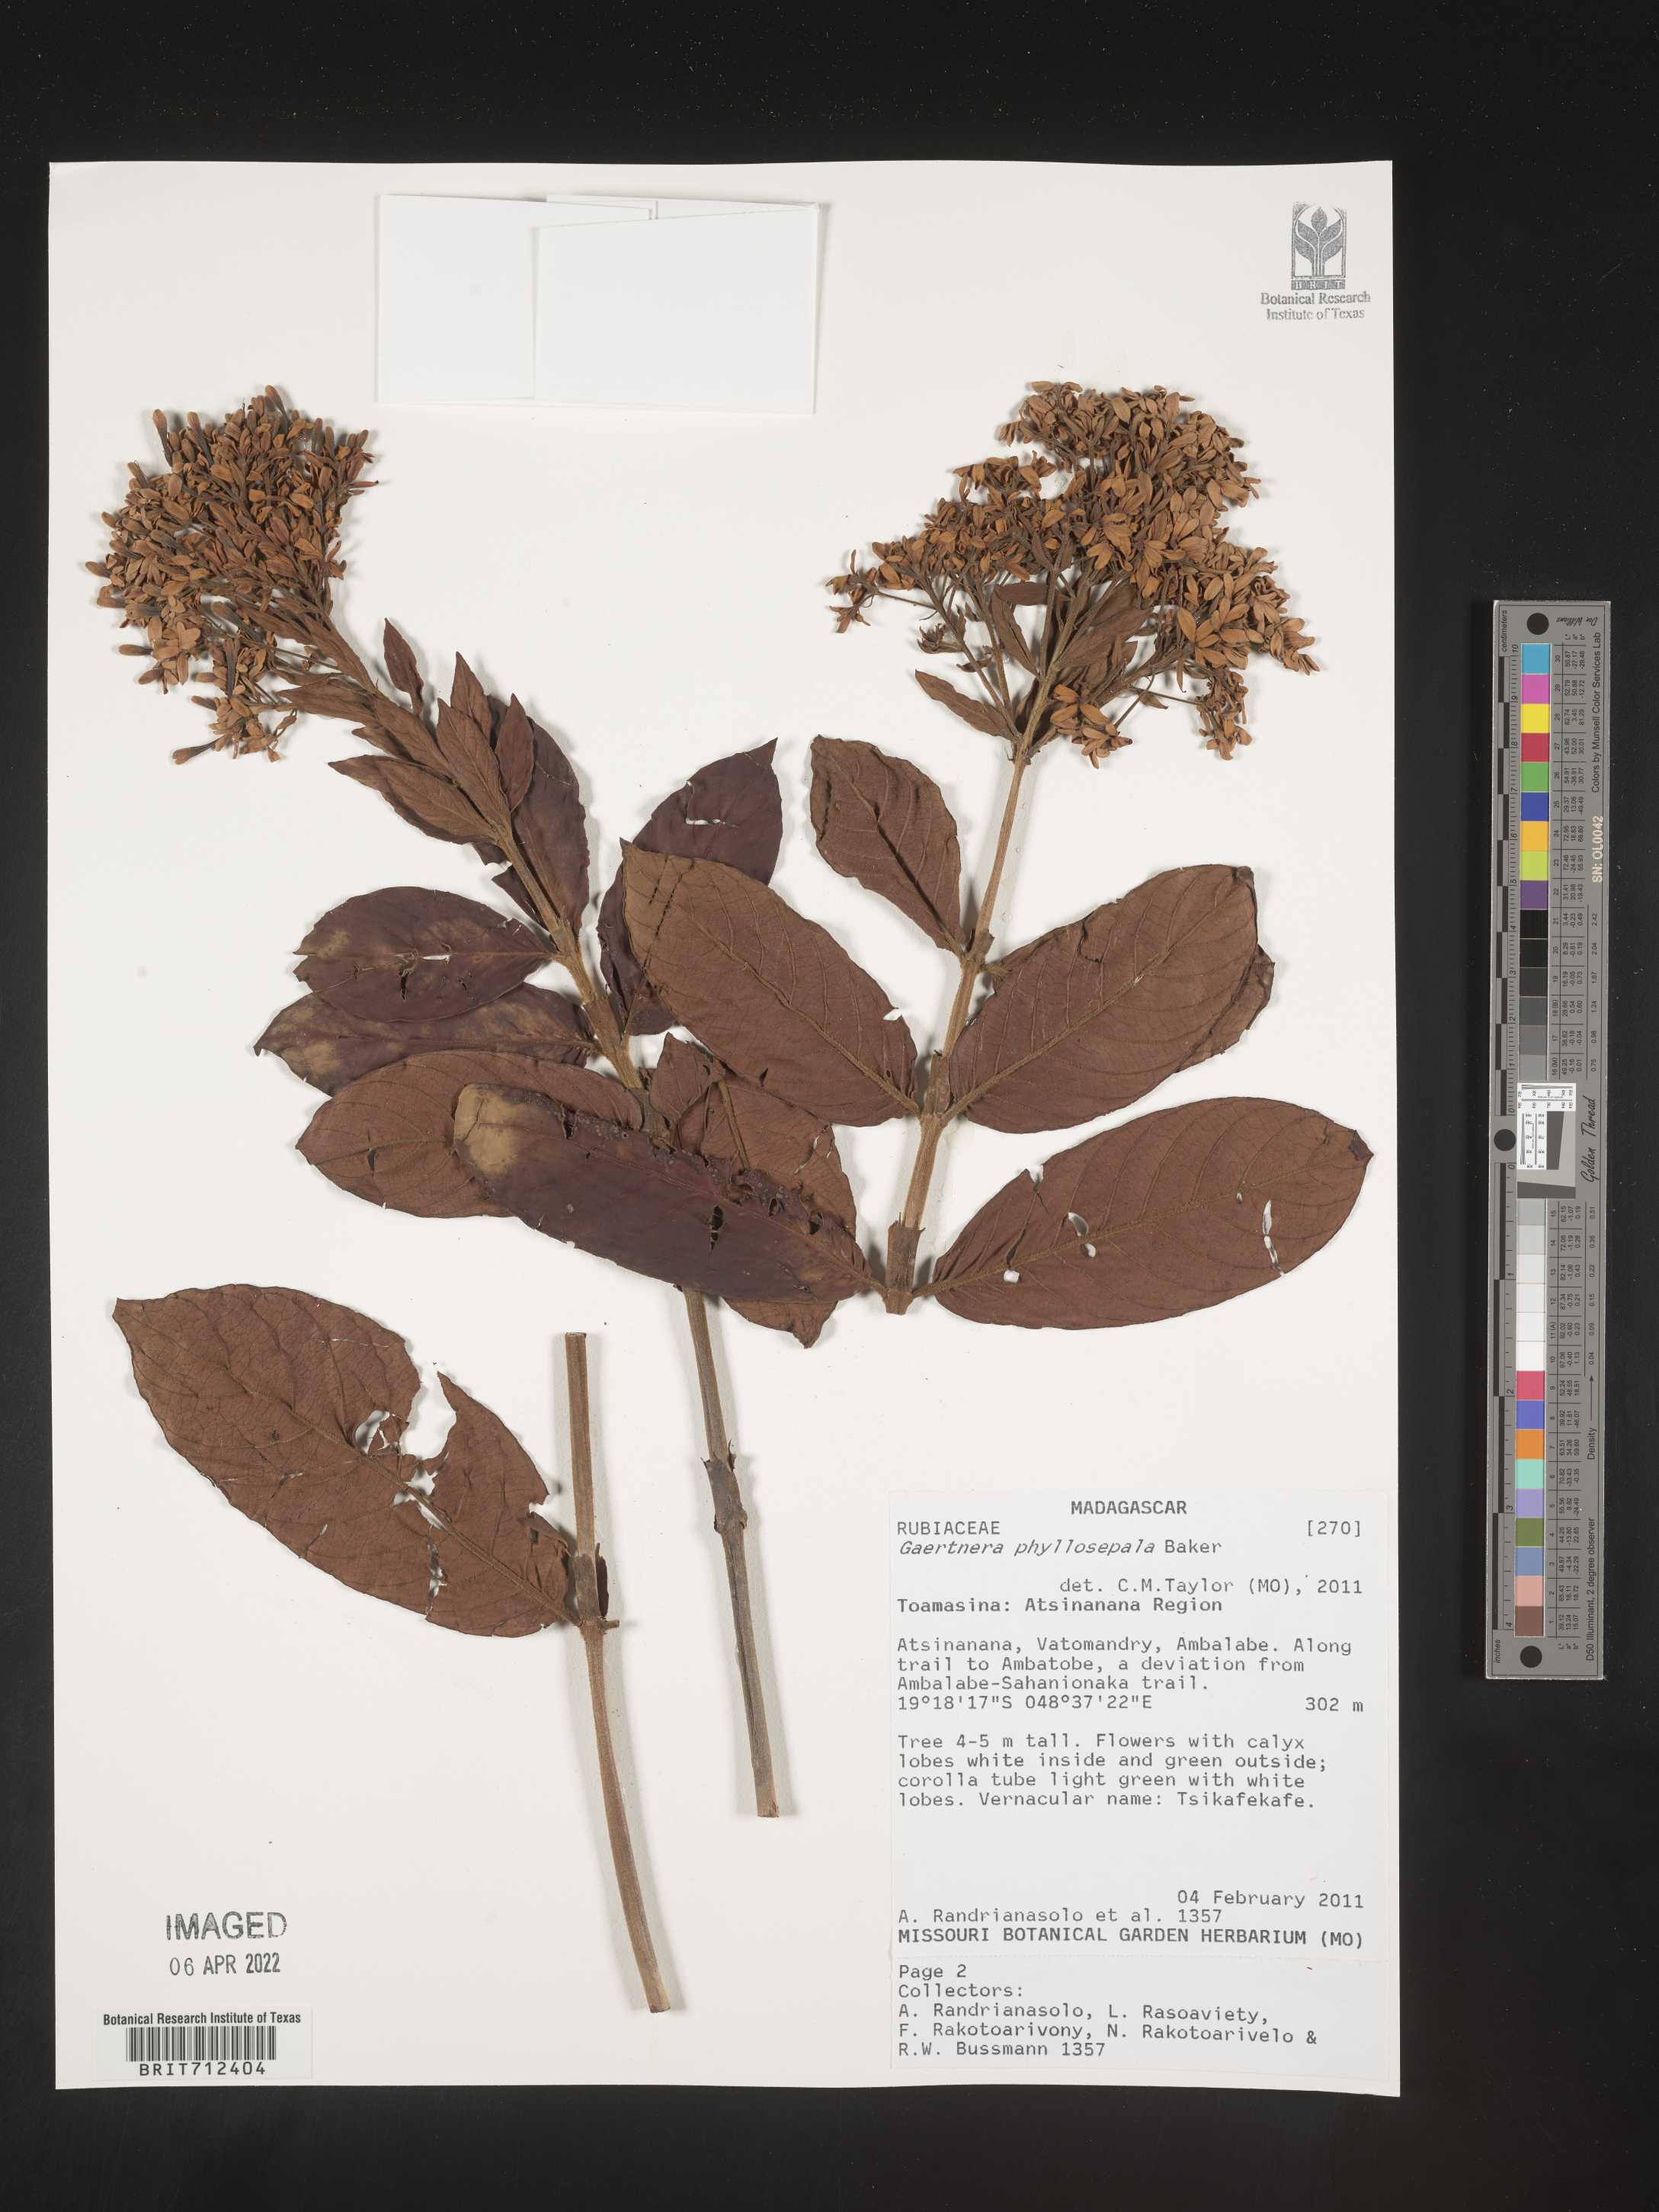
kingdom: Plantae
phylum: Tracheophyta
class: Magnoliopsida
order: Gentianales
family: Rubiaceae
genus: Gaertnera
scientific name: Gaertnera
